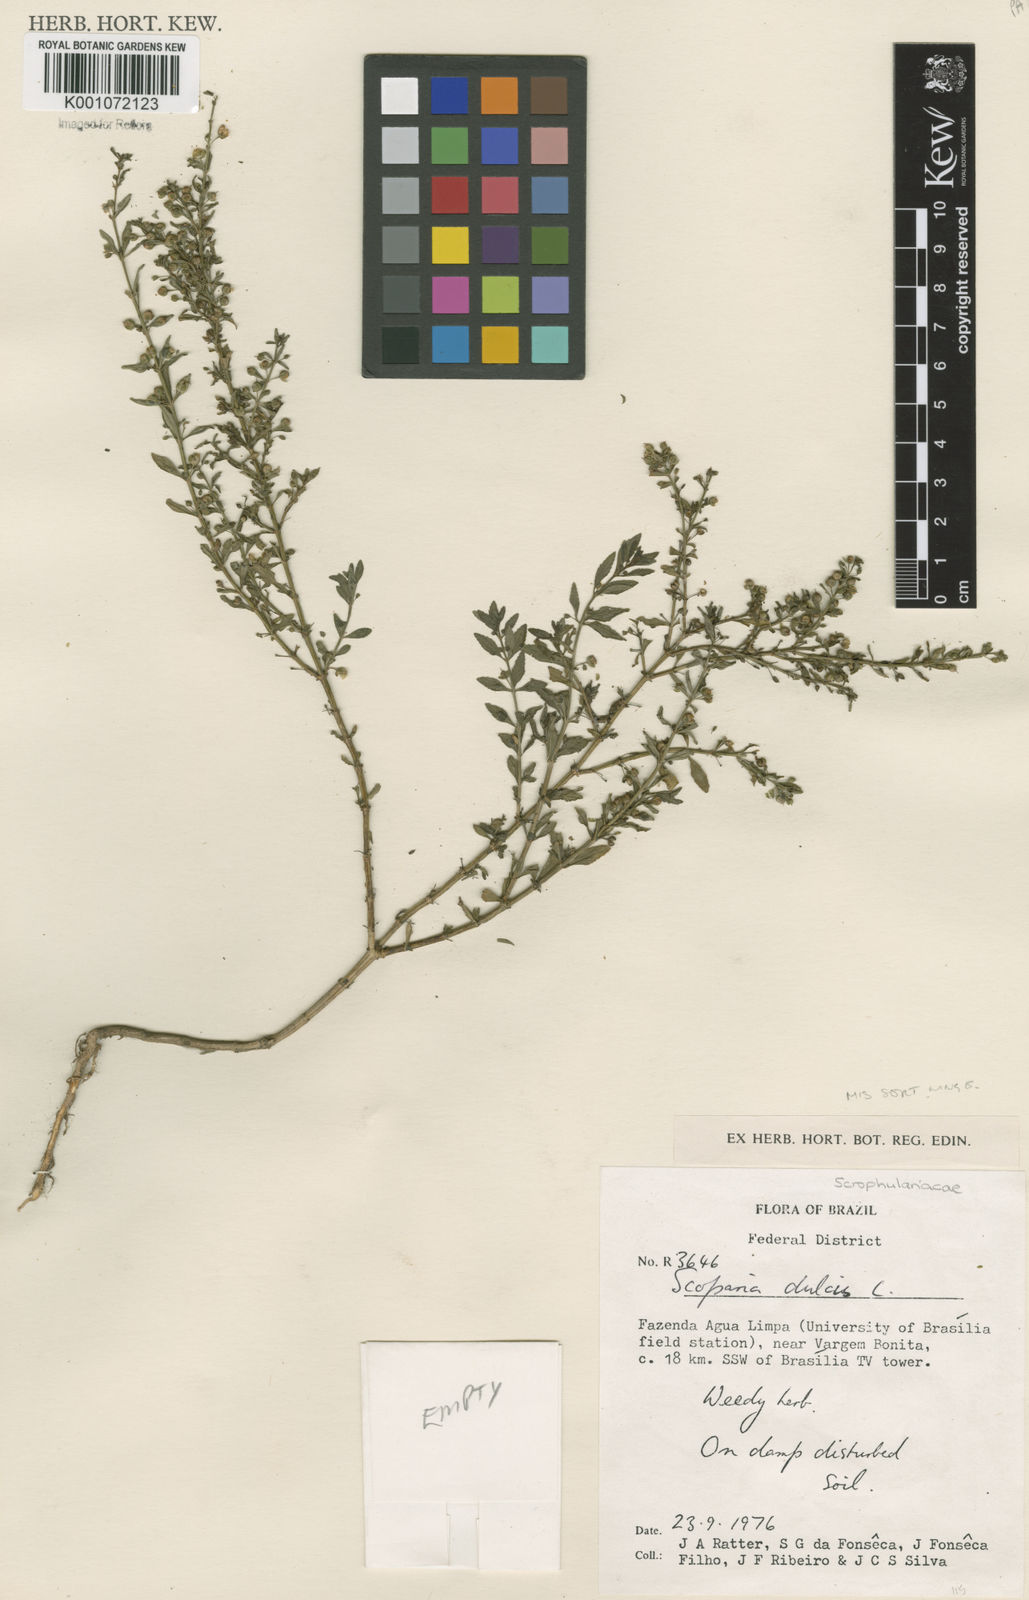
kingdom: Plantae
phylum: Tracheophyta
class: Magnoliopsida
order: Lamiales
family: Plantaginaceae
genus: Scoparia
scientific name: Scoparia dulcis
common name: Scoparia-weed
